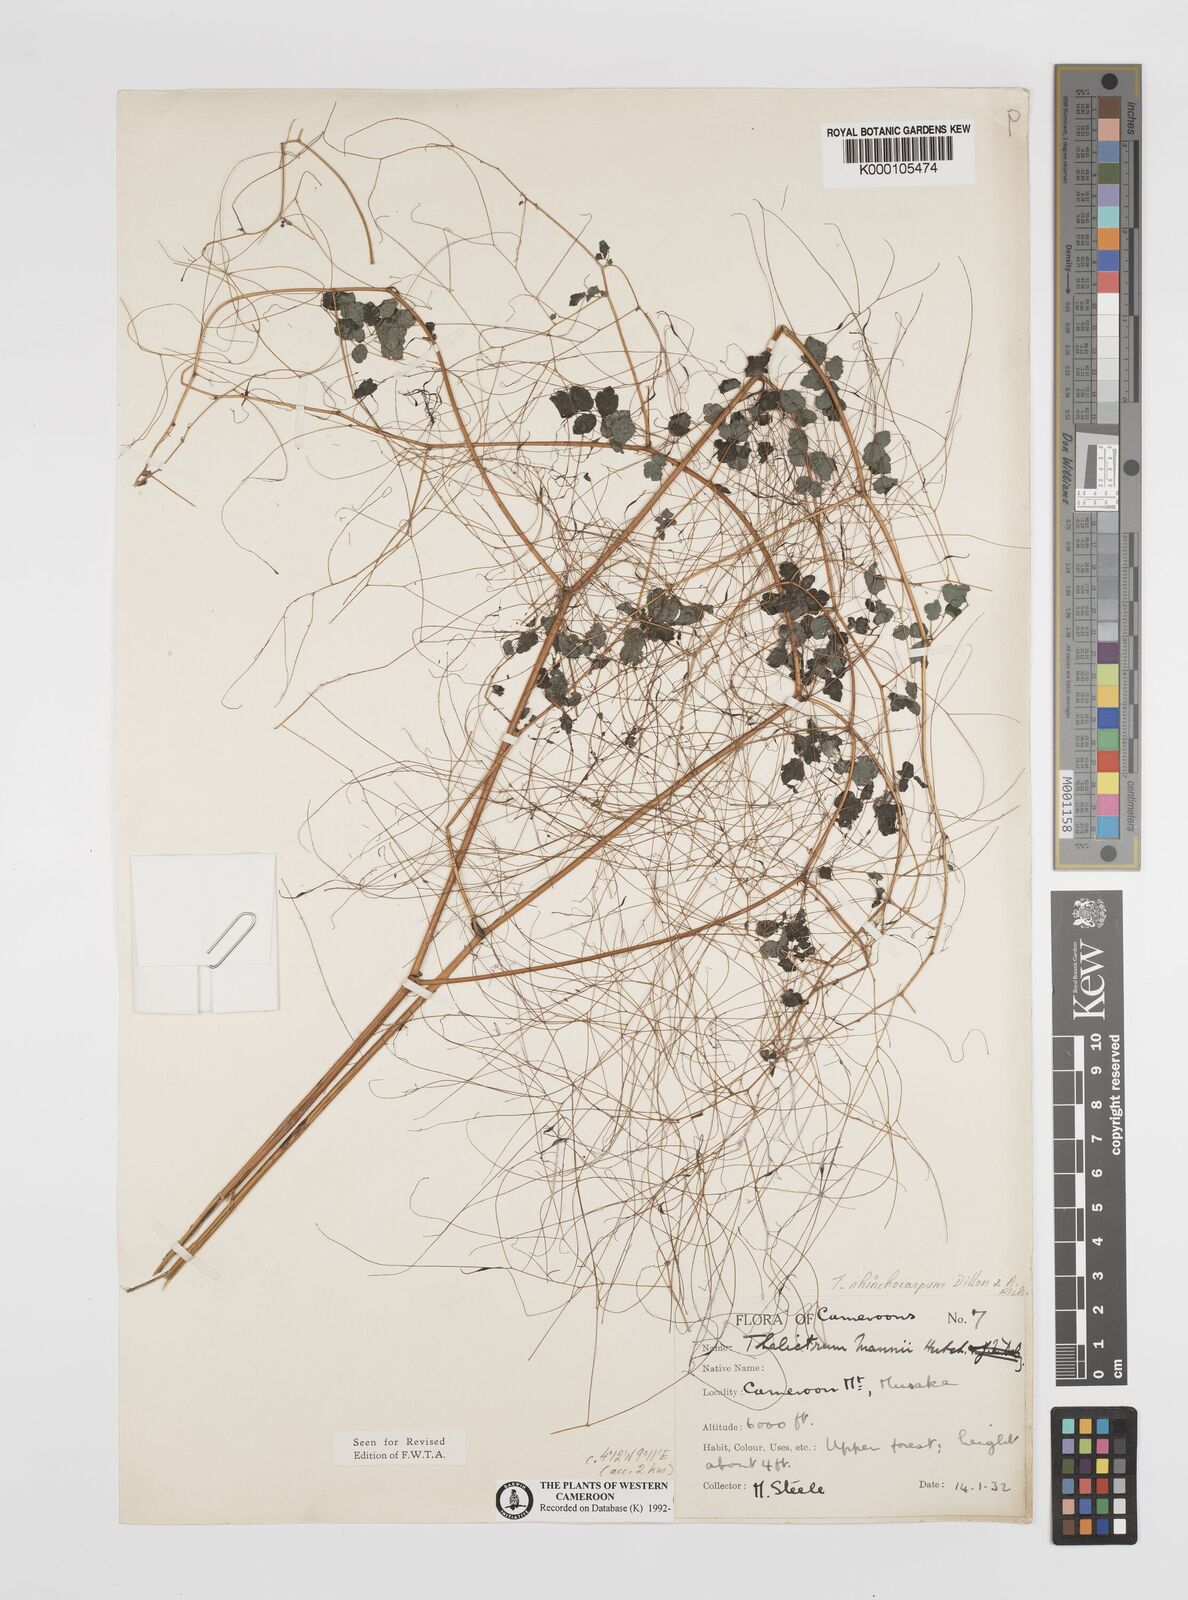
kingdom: Plantae
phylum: Tracheophyta
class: Magnoliopsida
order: Ranunculales
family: Ranunculaceae
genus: Thalictrum
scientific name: Thalictrum
